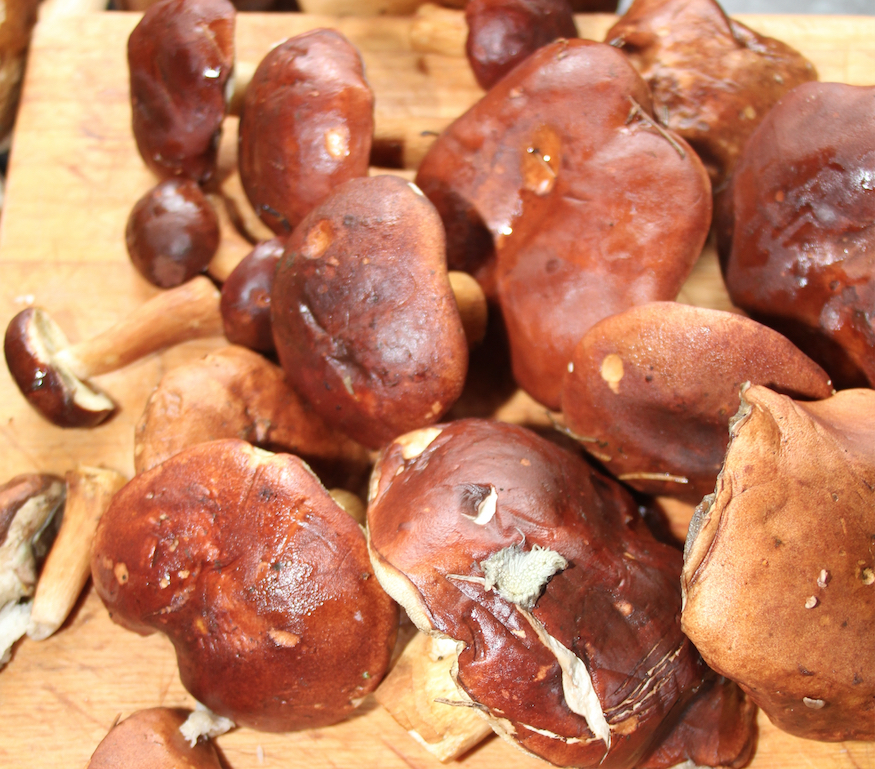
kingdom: Fungi
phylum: Basidiomycota
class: Agaricomycetes
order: Boletales
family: Boletaceae
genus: Imleria
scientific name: Imleria badia
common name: brunstokket rørhat
